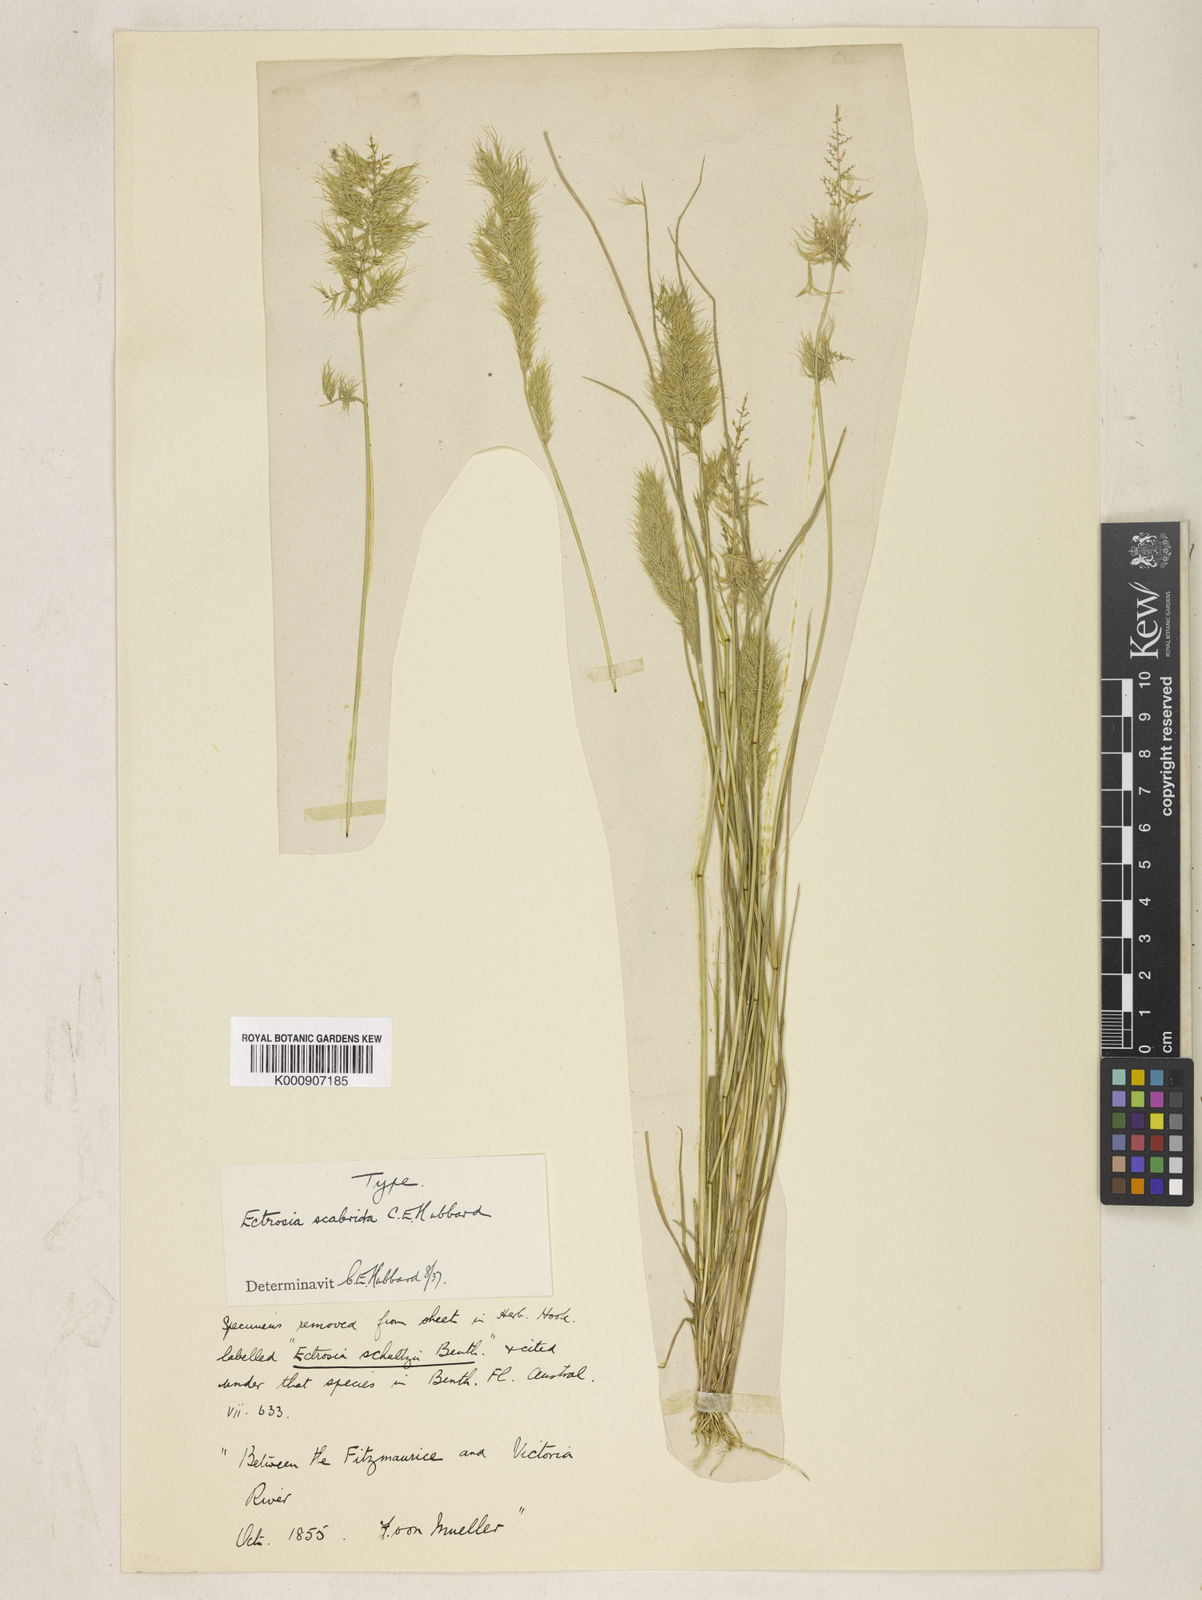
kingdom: Plantae
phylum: Tracheophyta
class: Liliopsida
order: Poales
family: Poaceae
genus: Eragrostis
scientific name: Eragrostis scabrida
